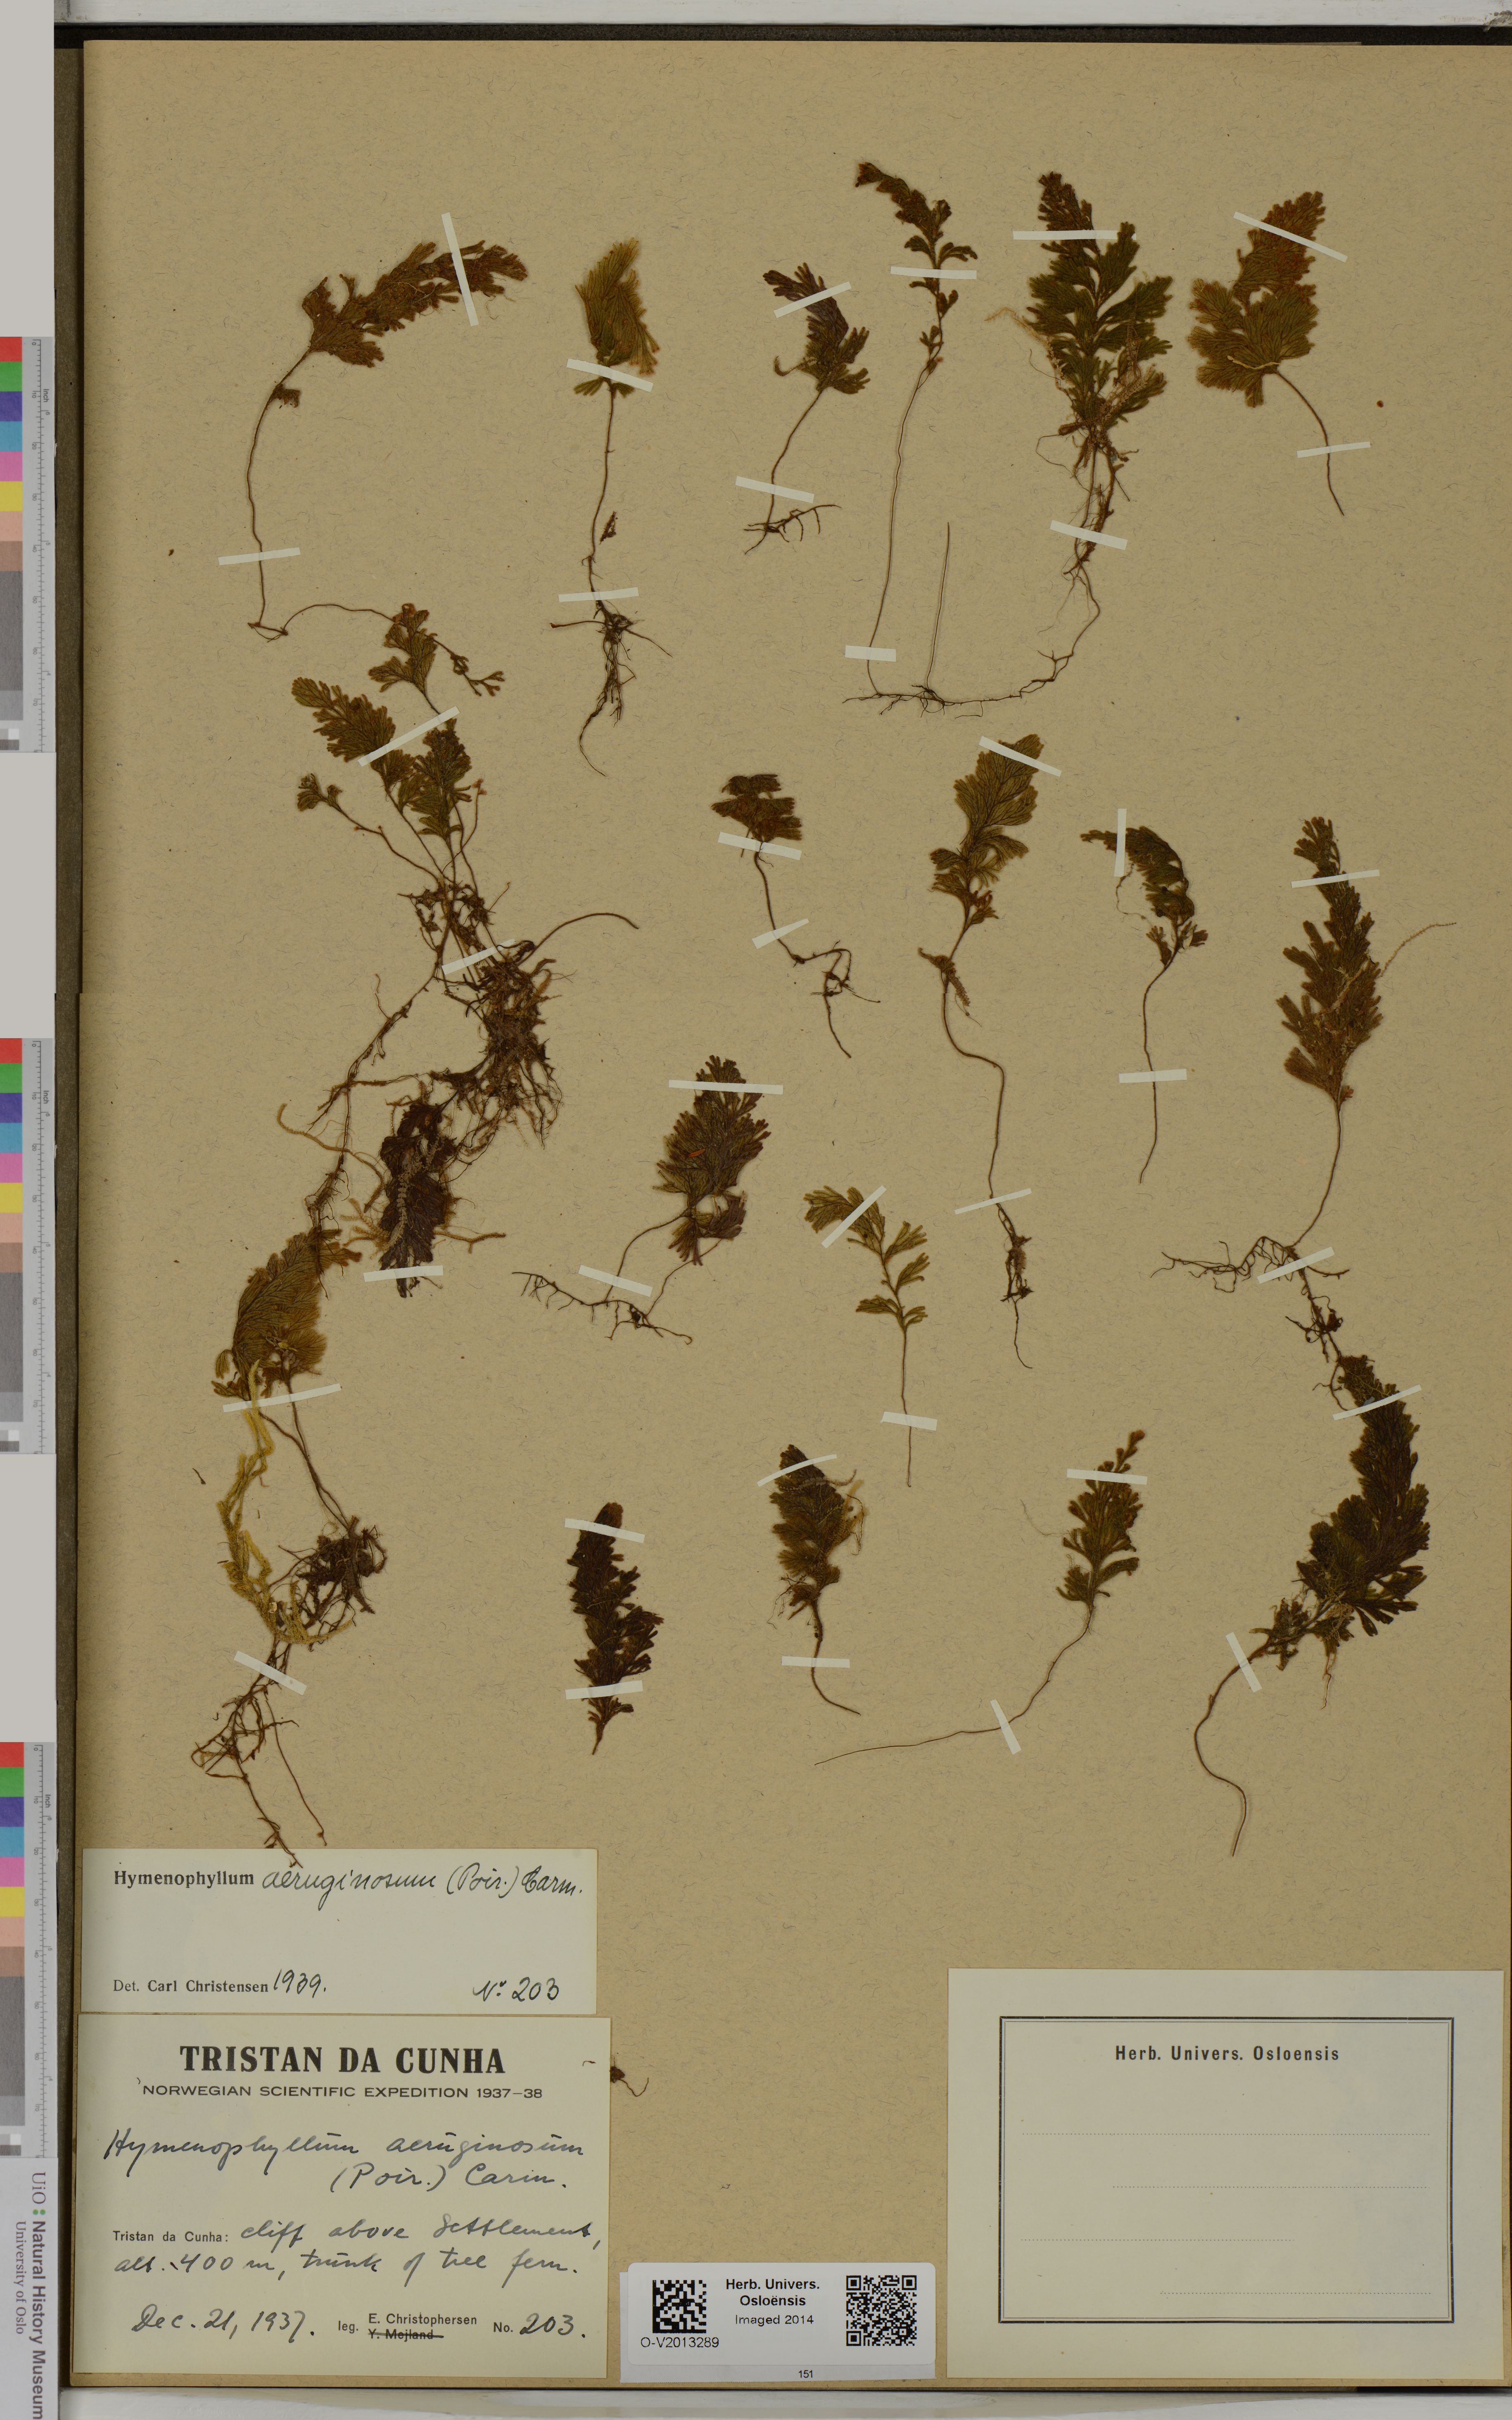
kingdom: Plantae
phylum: Tracheophyta
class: Polypodiopsida
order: Hymenophyllales
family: Hymenophyllaceae
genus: Hymenophyllum
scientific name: Hymenophyllum aeruginosum
